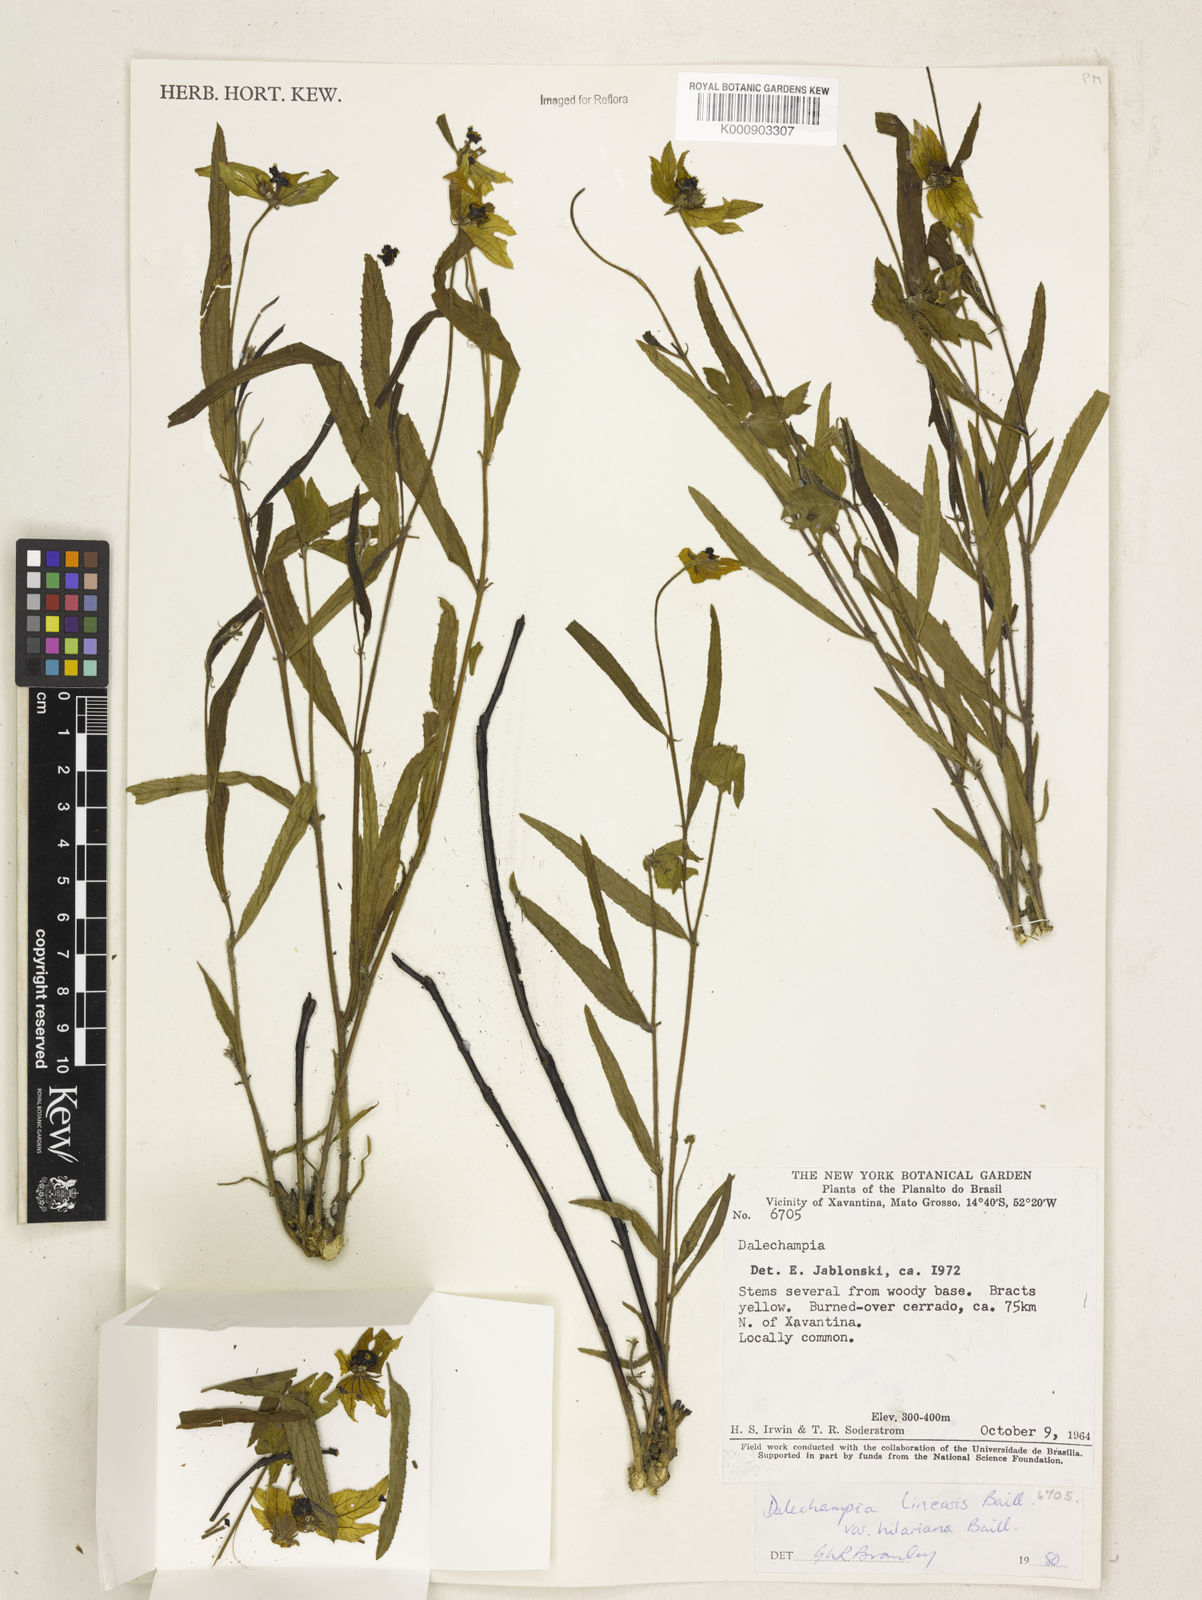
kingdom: Plantae
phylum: Tracheophyta
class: Magnoliopsida
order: Malpighiales
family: Euphorbiaceae
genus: Dalechampia
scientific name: Dalechampia linearis
